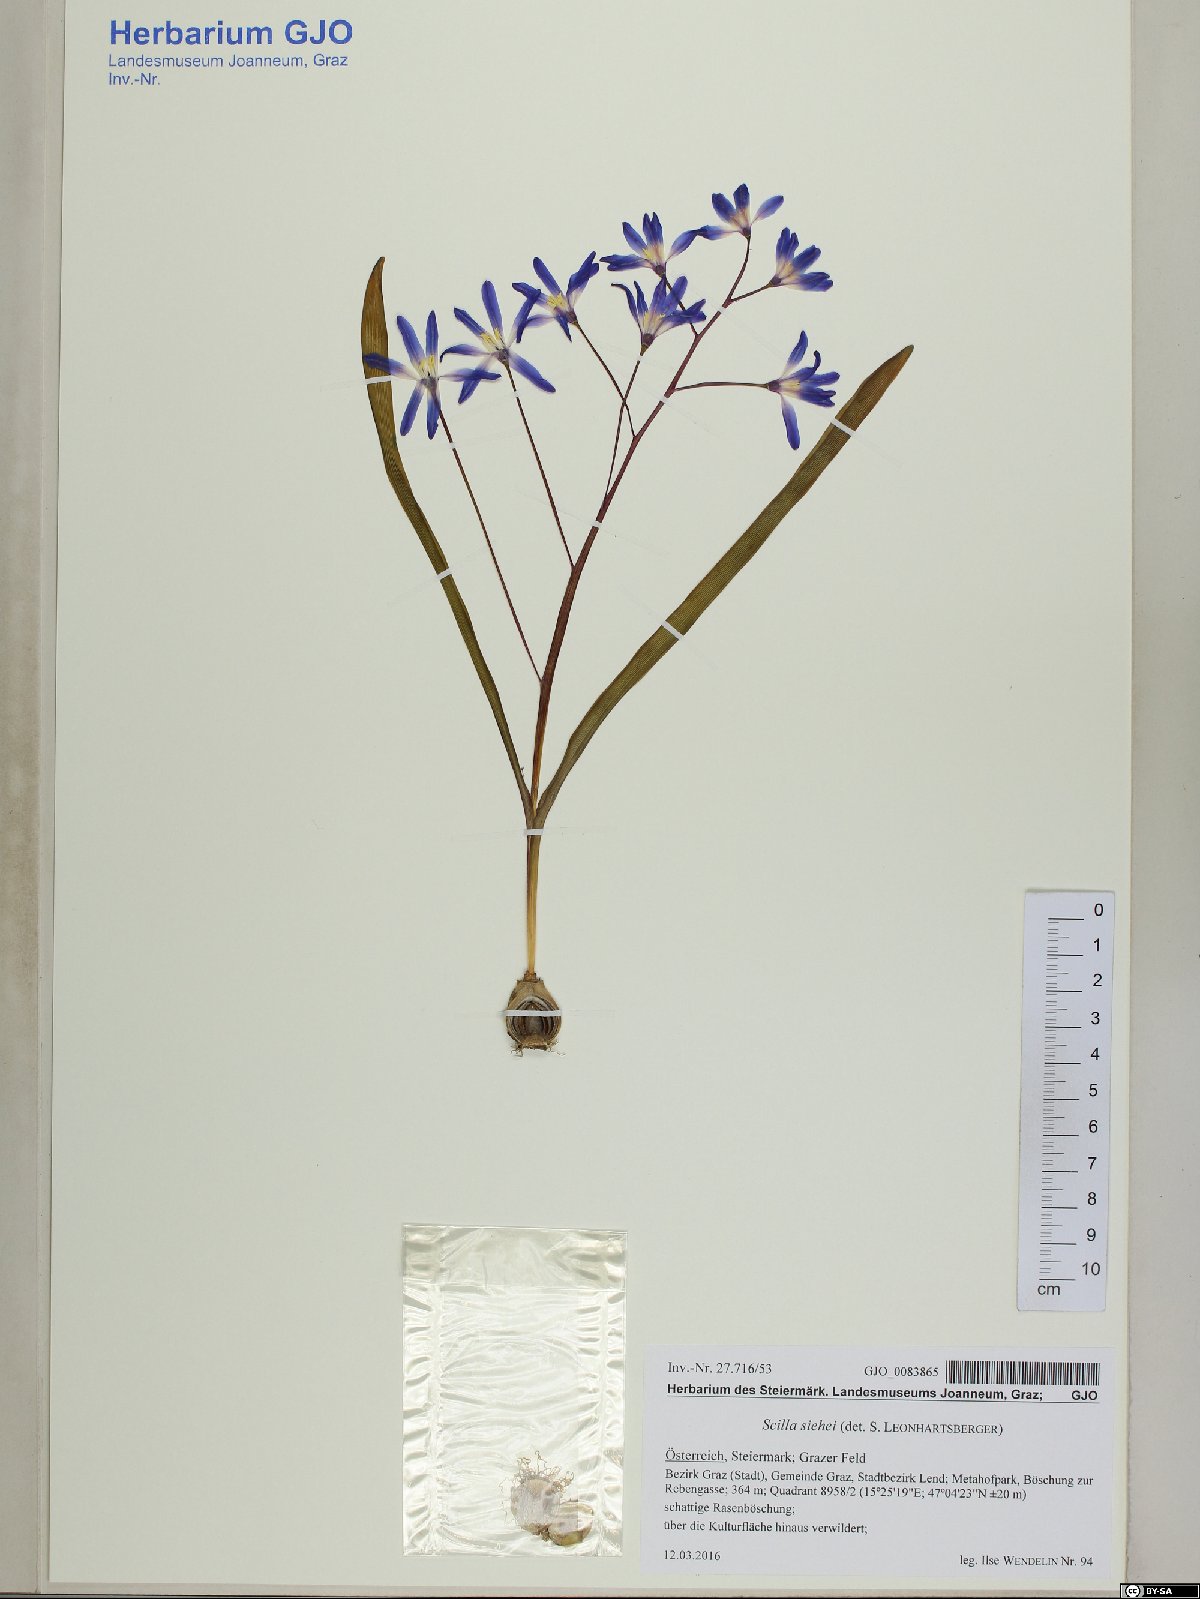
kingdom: Plantae
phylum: Tracheophyta
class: Liliopsida
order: Asparagales
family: Asparagaceae
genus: Scilla
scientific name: Scilla forbesii
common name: Glory-of-the-snow
